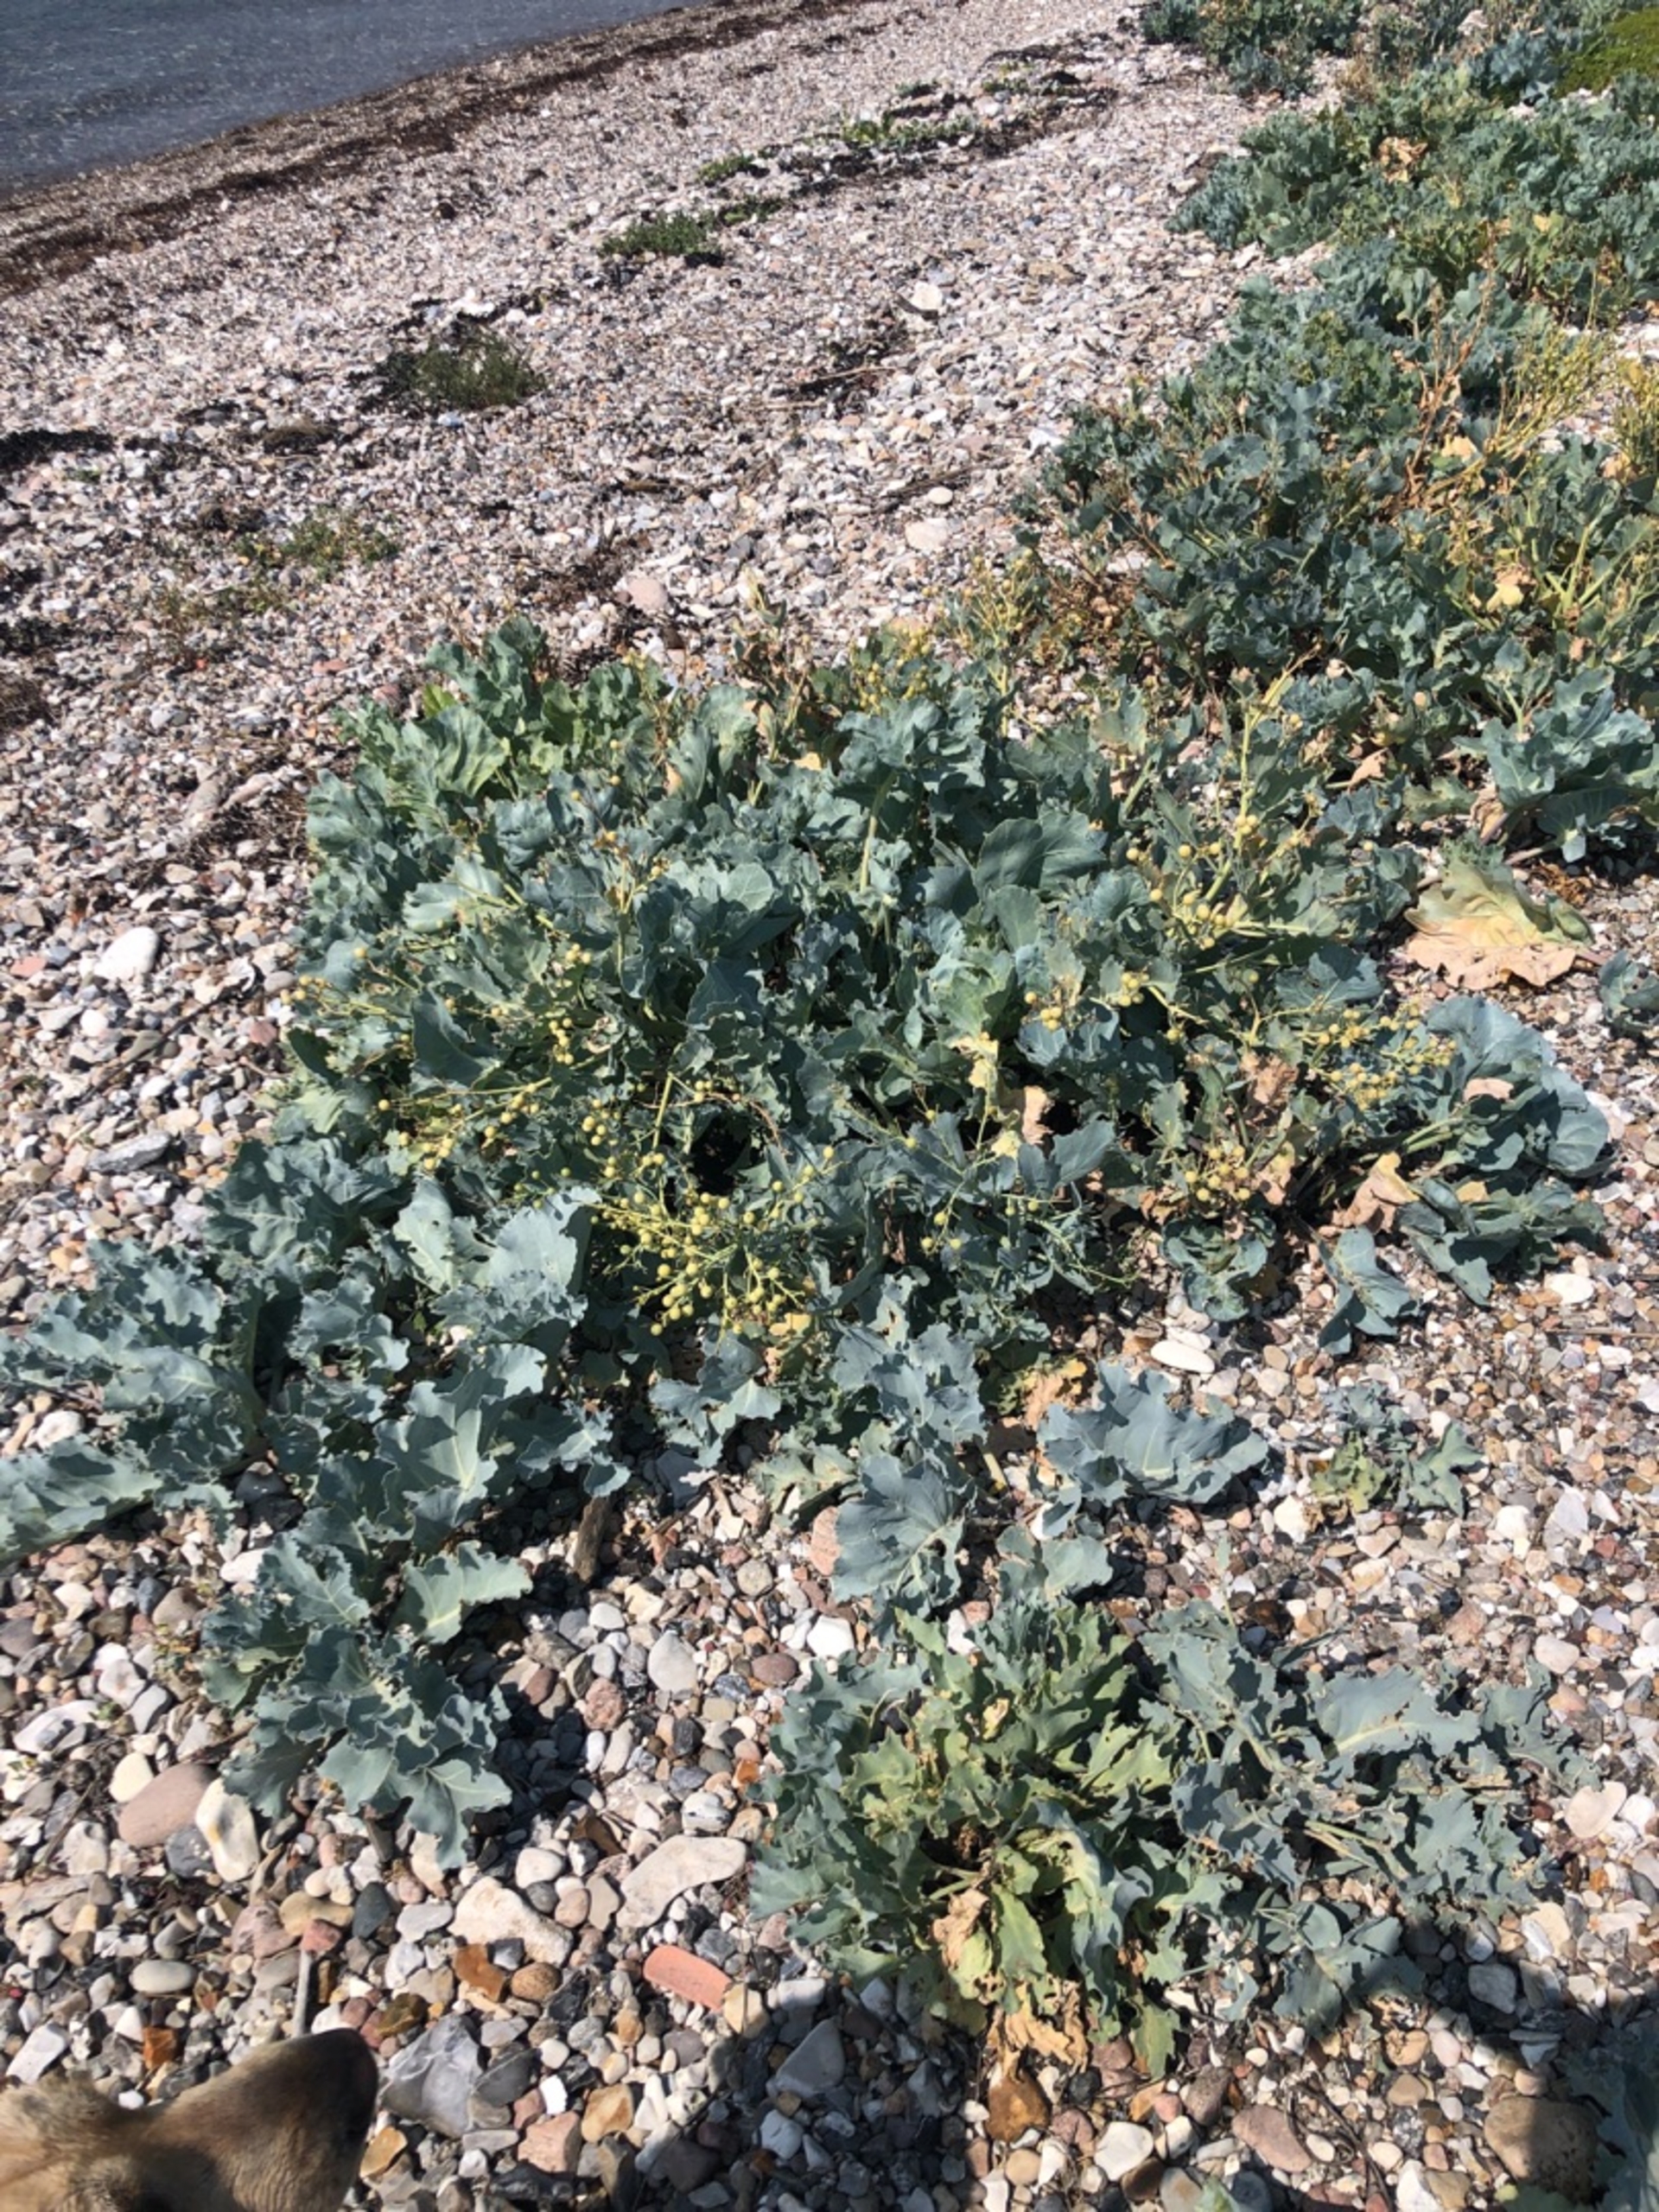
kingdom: Plantae
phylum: Tracheophyta
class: Magnoliopsida
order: Brassicales
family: Brassicaceae
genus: Crambe
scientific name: Crambe maritima
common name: Strandkål
